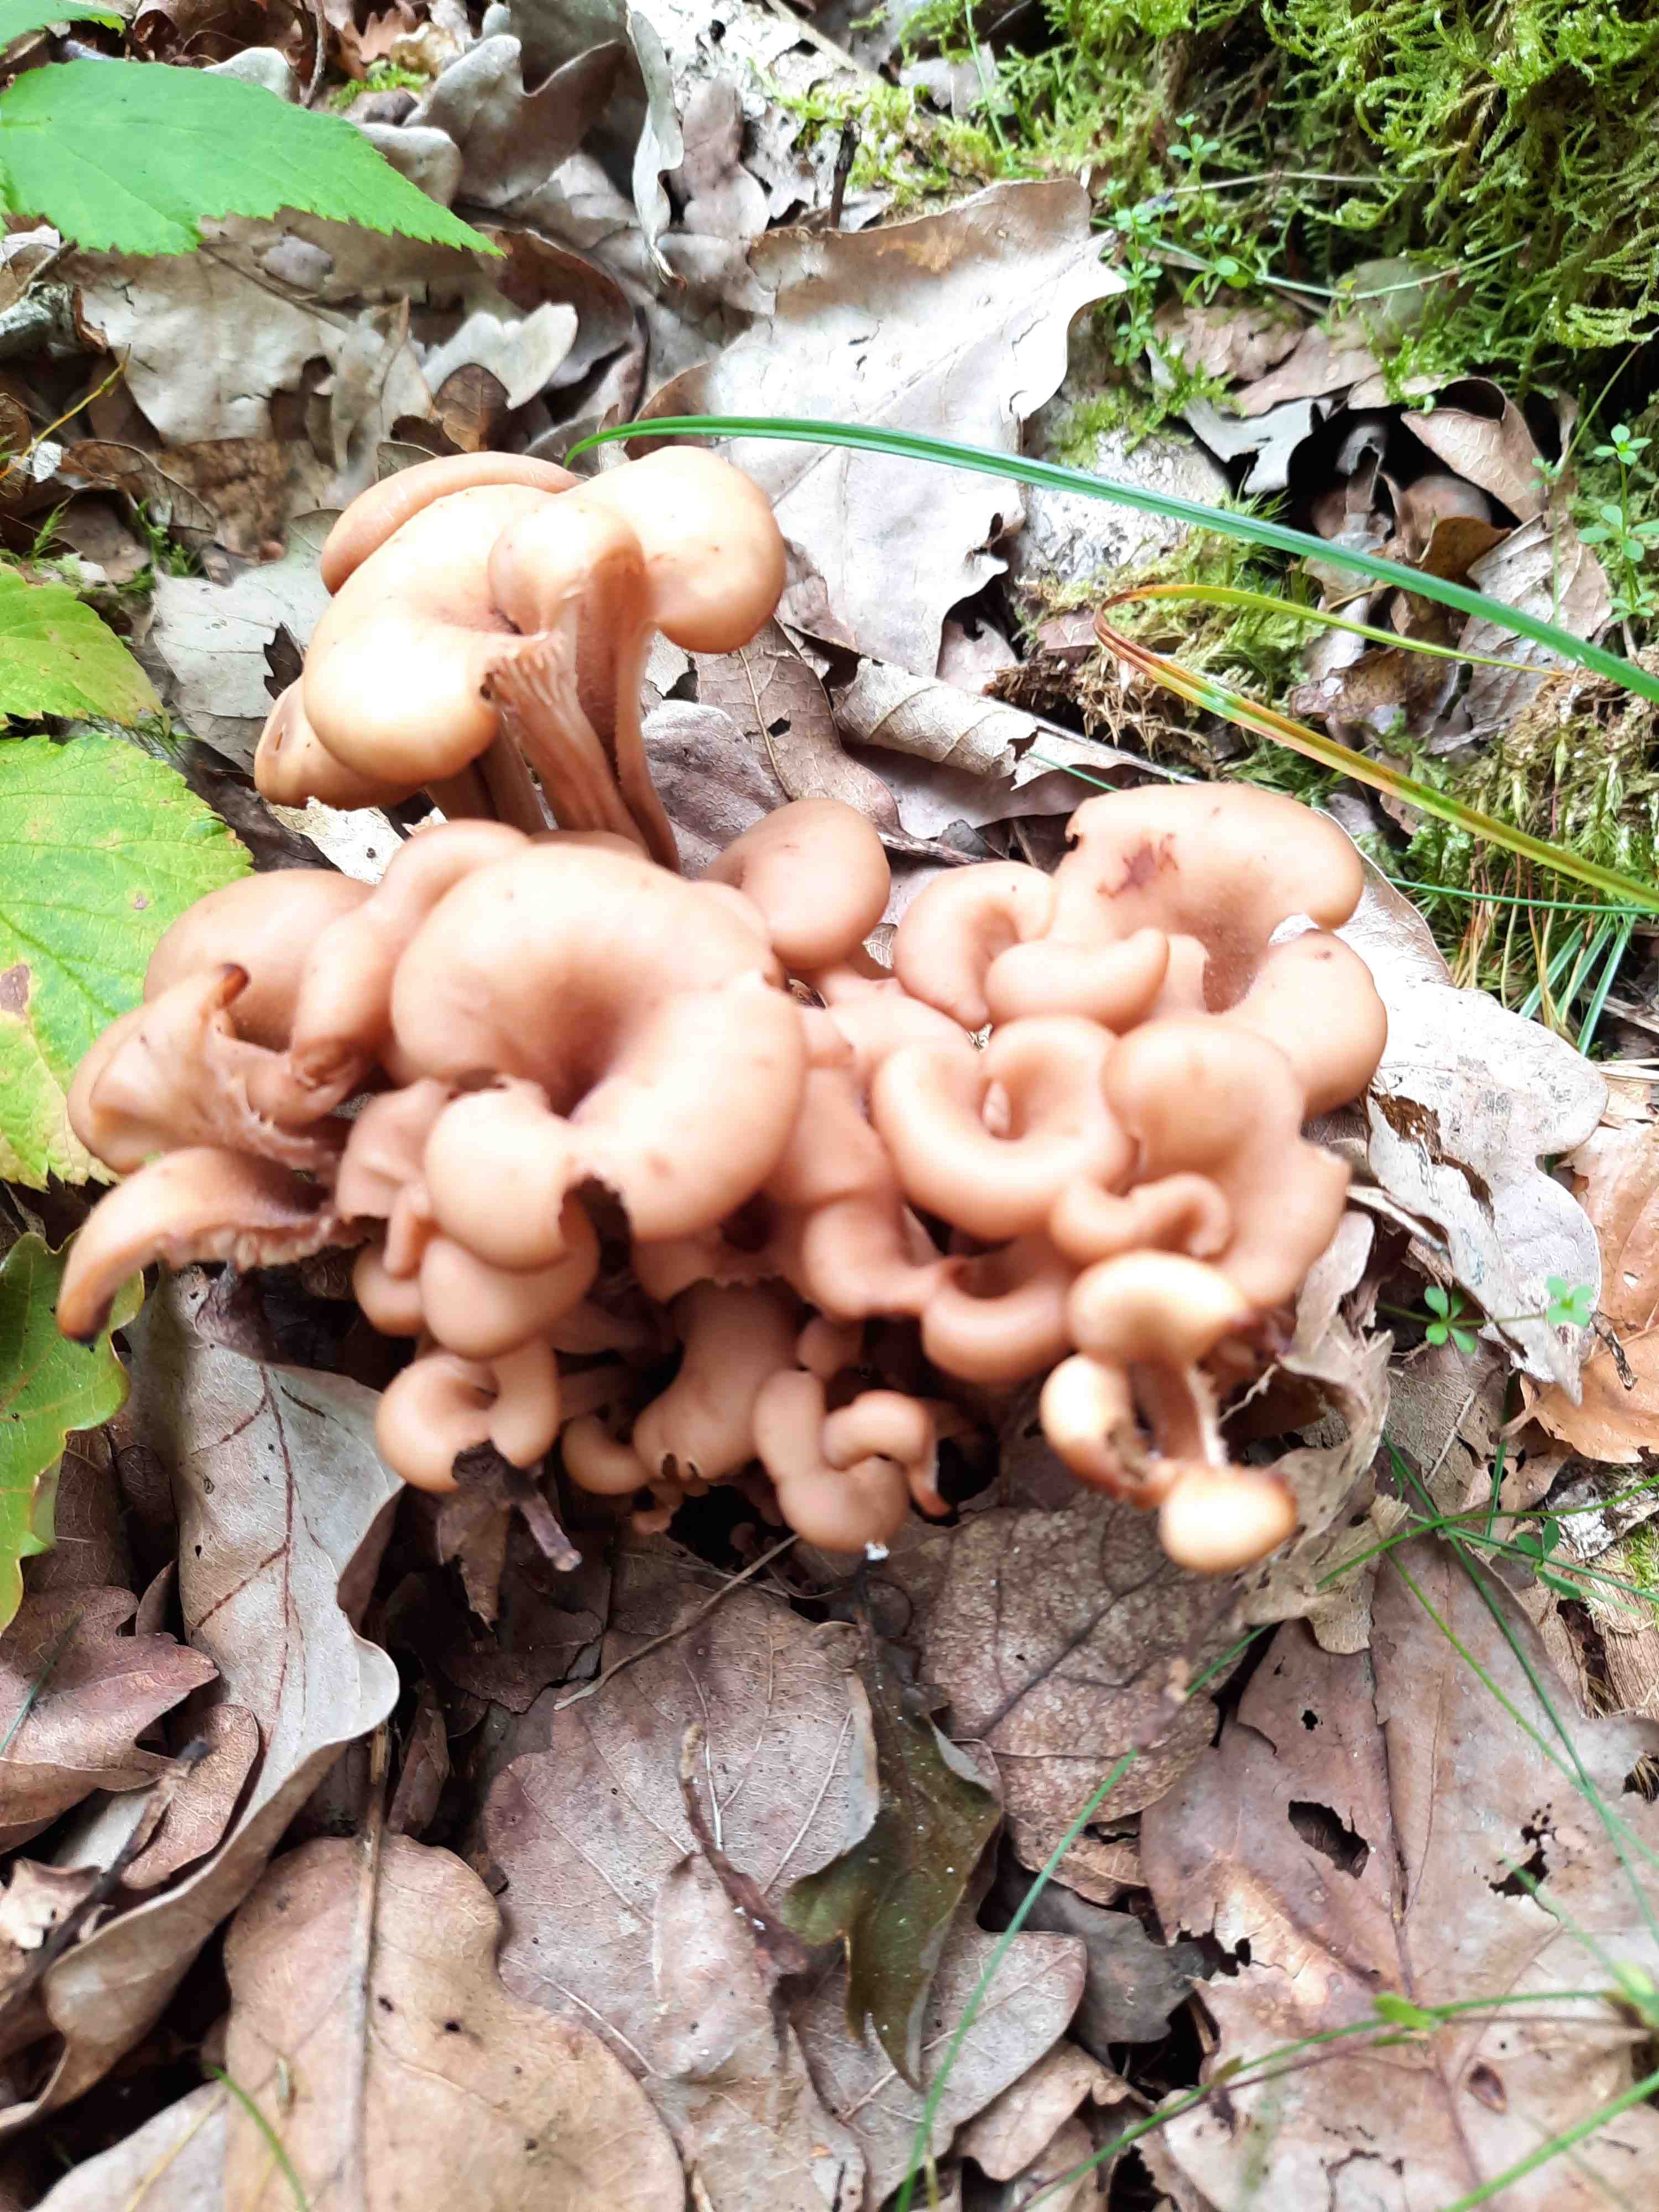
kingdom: Fungi
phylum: Basidiomycota
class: Agaricomycetes
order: Russulales
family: Auriscalpiaceae
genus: Lentinellus
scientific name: Lentinellus cochleatus
